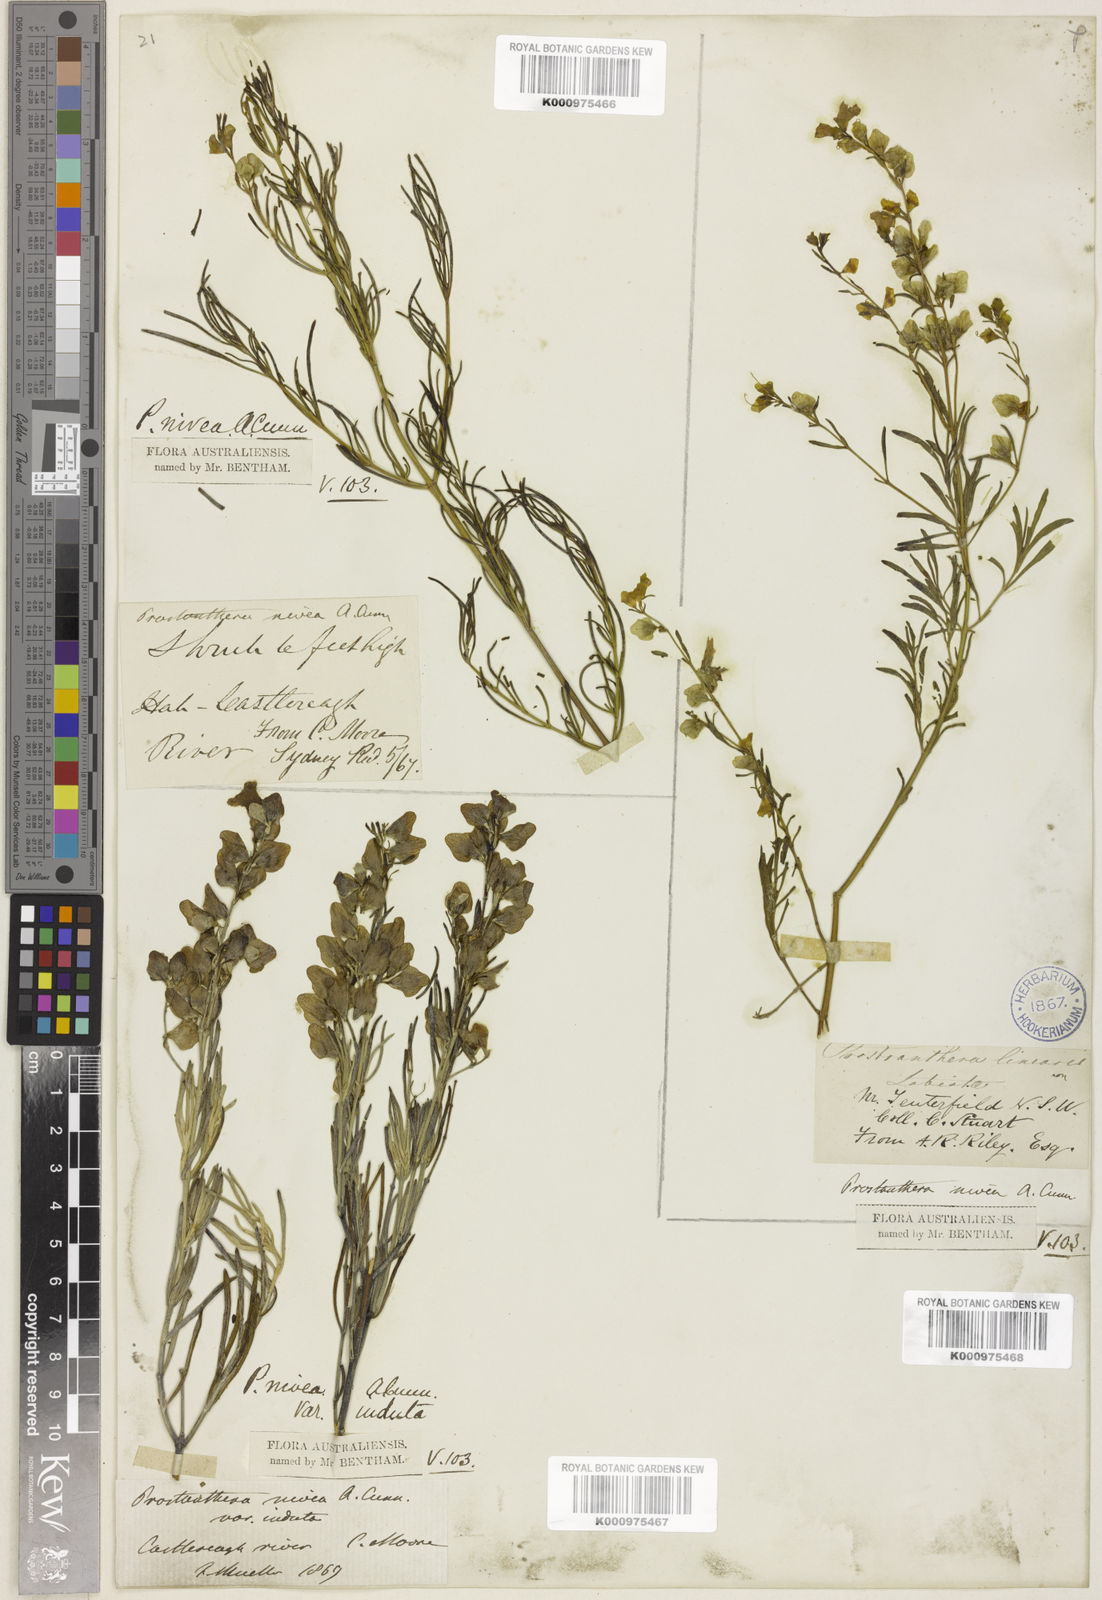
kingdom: Plantae
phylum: Tracheophyta
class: Magnoliopsida
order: Lamiales
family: Lamiaceae
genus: Prostanthera
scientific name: Prostanthera nivea
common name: Snowy mintbush
